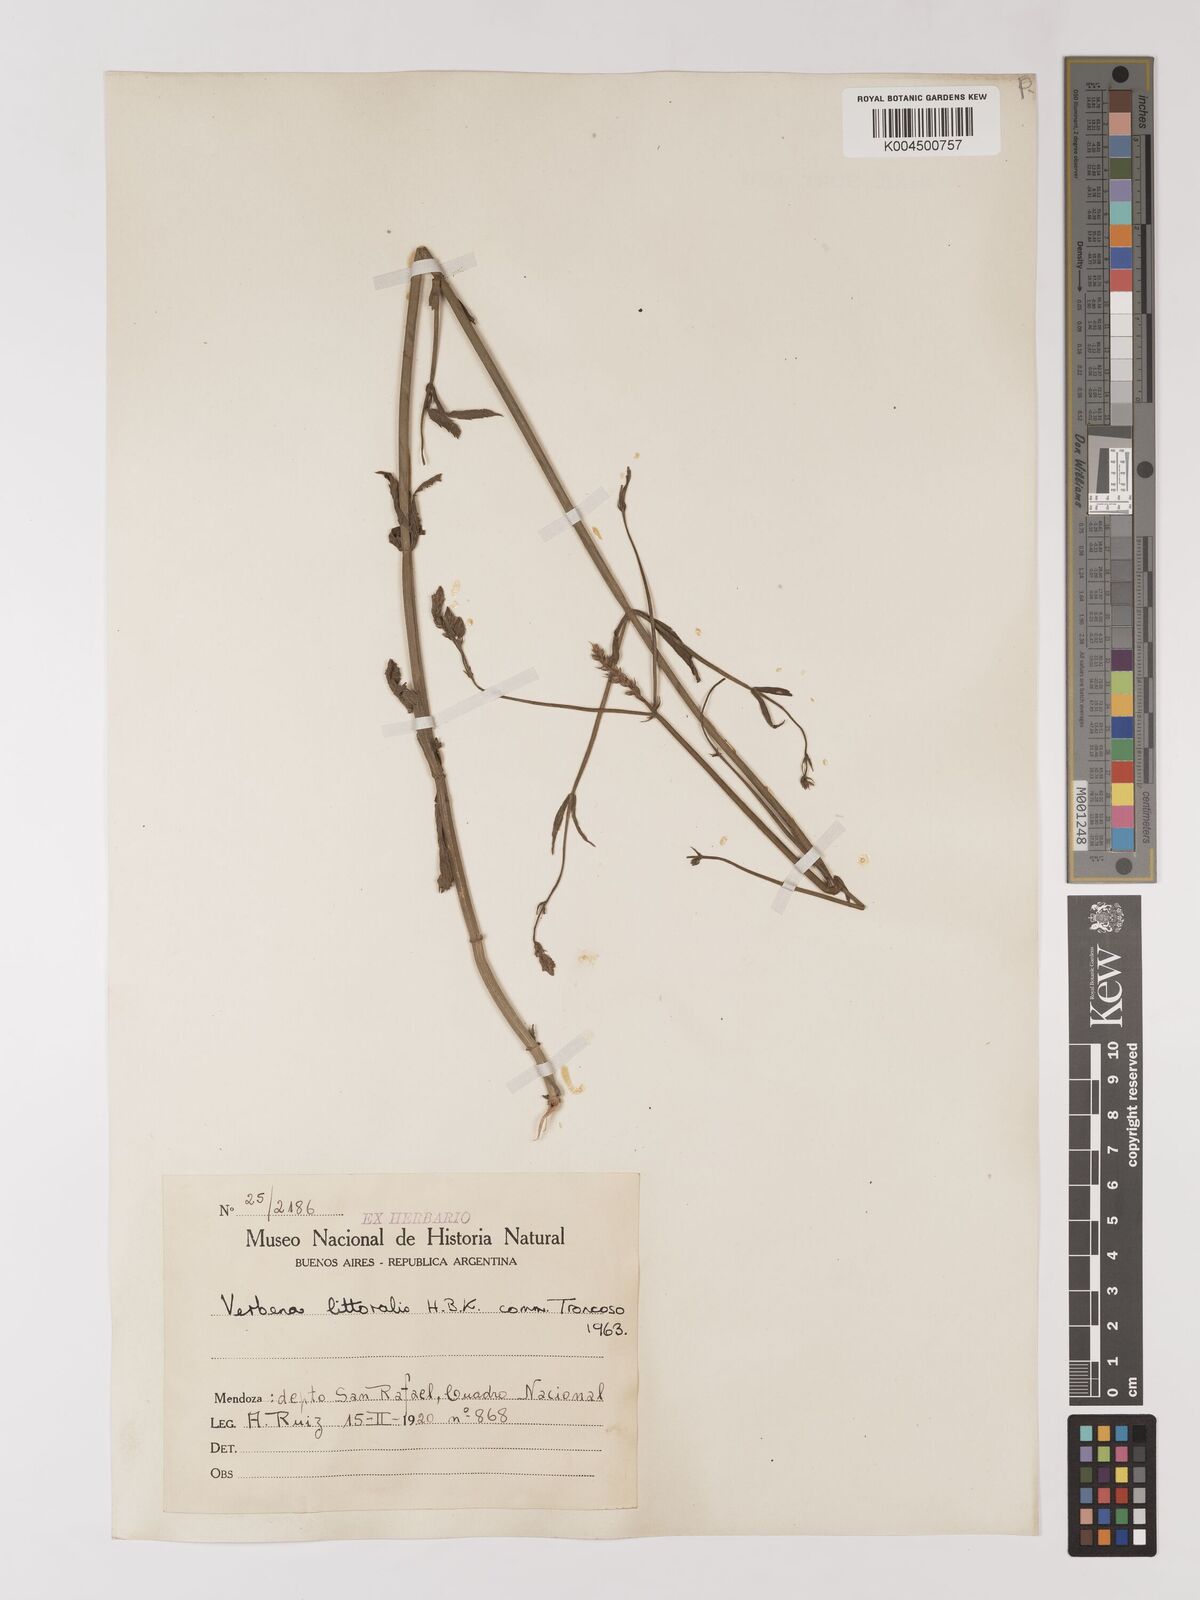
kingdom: Plantae
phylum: Tracheophyta
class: Magnoliopsida
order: Lamiales
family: Verbenaceae
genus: Verbena
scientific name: Verbena litoralis
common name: Seashore vervain
